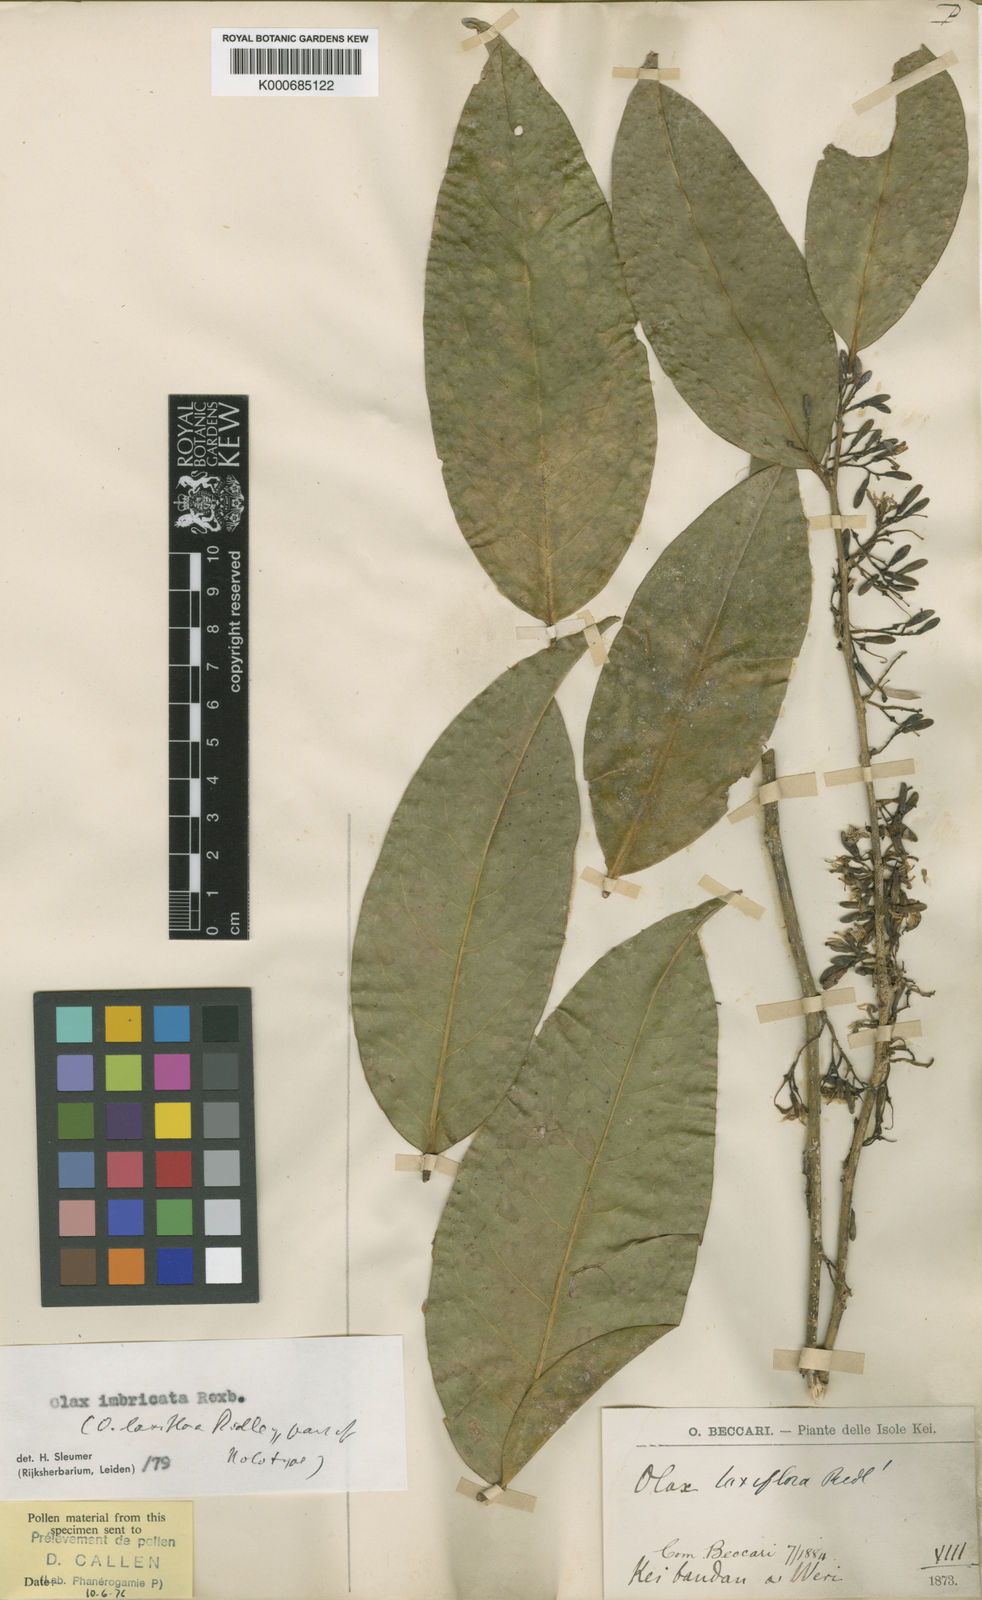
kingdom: Plantae
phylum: Tracheophyta
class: Magnoliopsida
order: Santalales
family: Olacaceae
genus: Olax
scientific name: Olax imbricata
